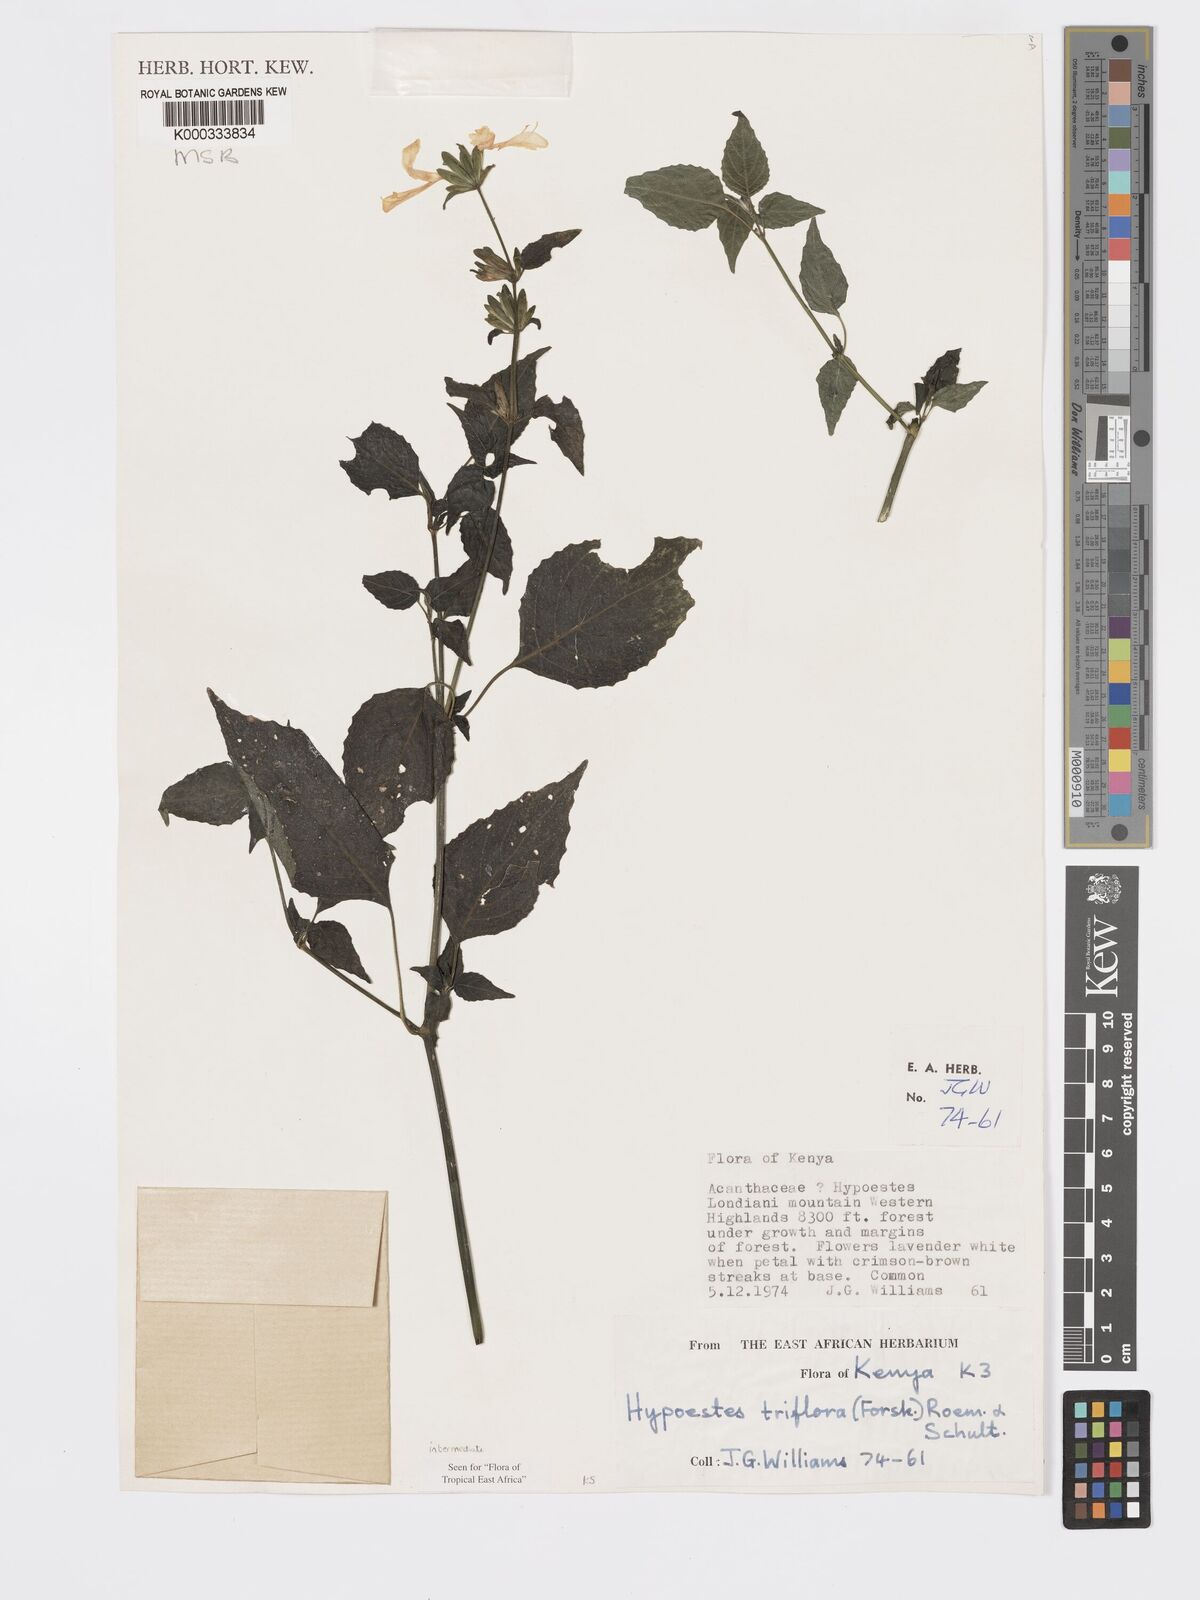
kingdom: Plantae
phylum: Tracheophyta
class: Magnoliopsida
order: Lamiales
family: Acanthaceae
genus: Hypoestes
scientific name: Hypoestes triflora
